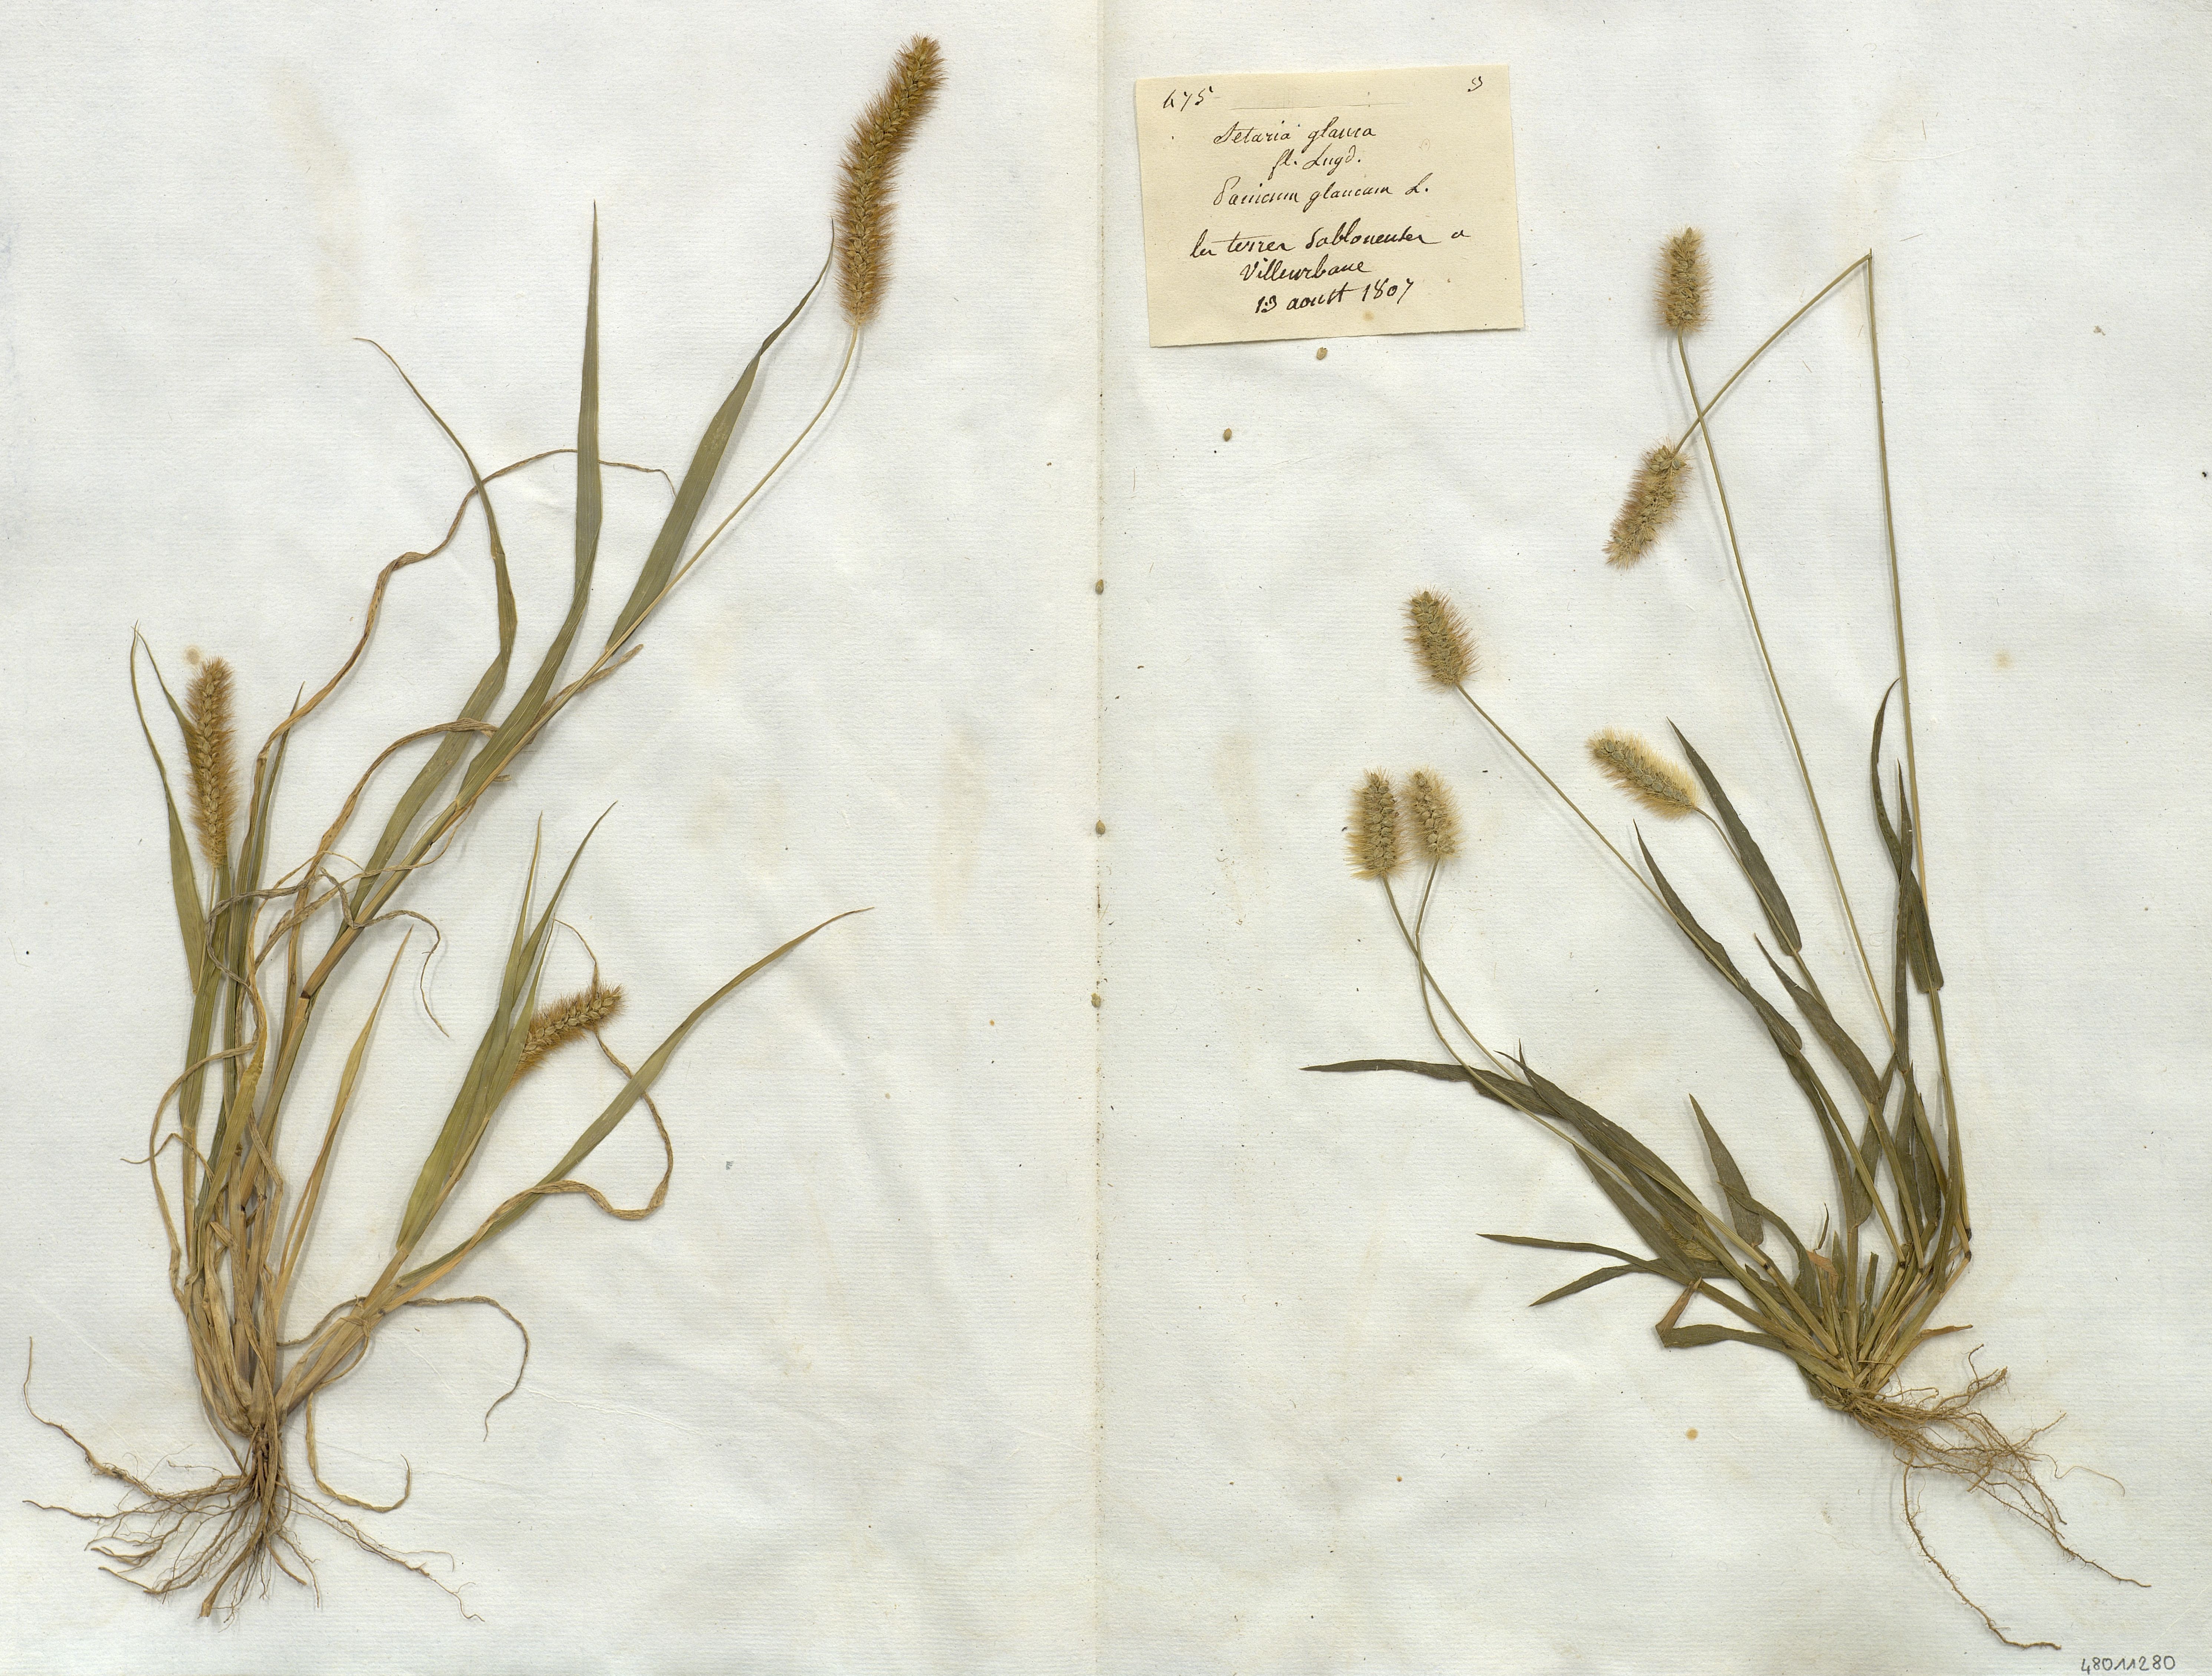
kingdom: Plantae
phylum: Tracheophyta
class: Liliopsida
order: Poales
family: Poaceae
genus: Setaria
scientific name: Setaria glauca
